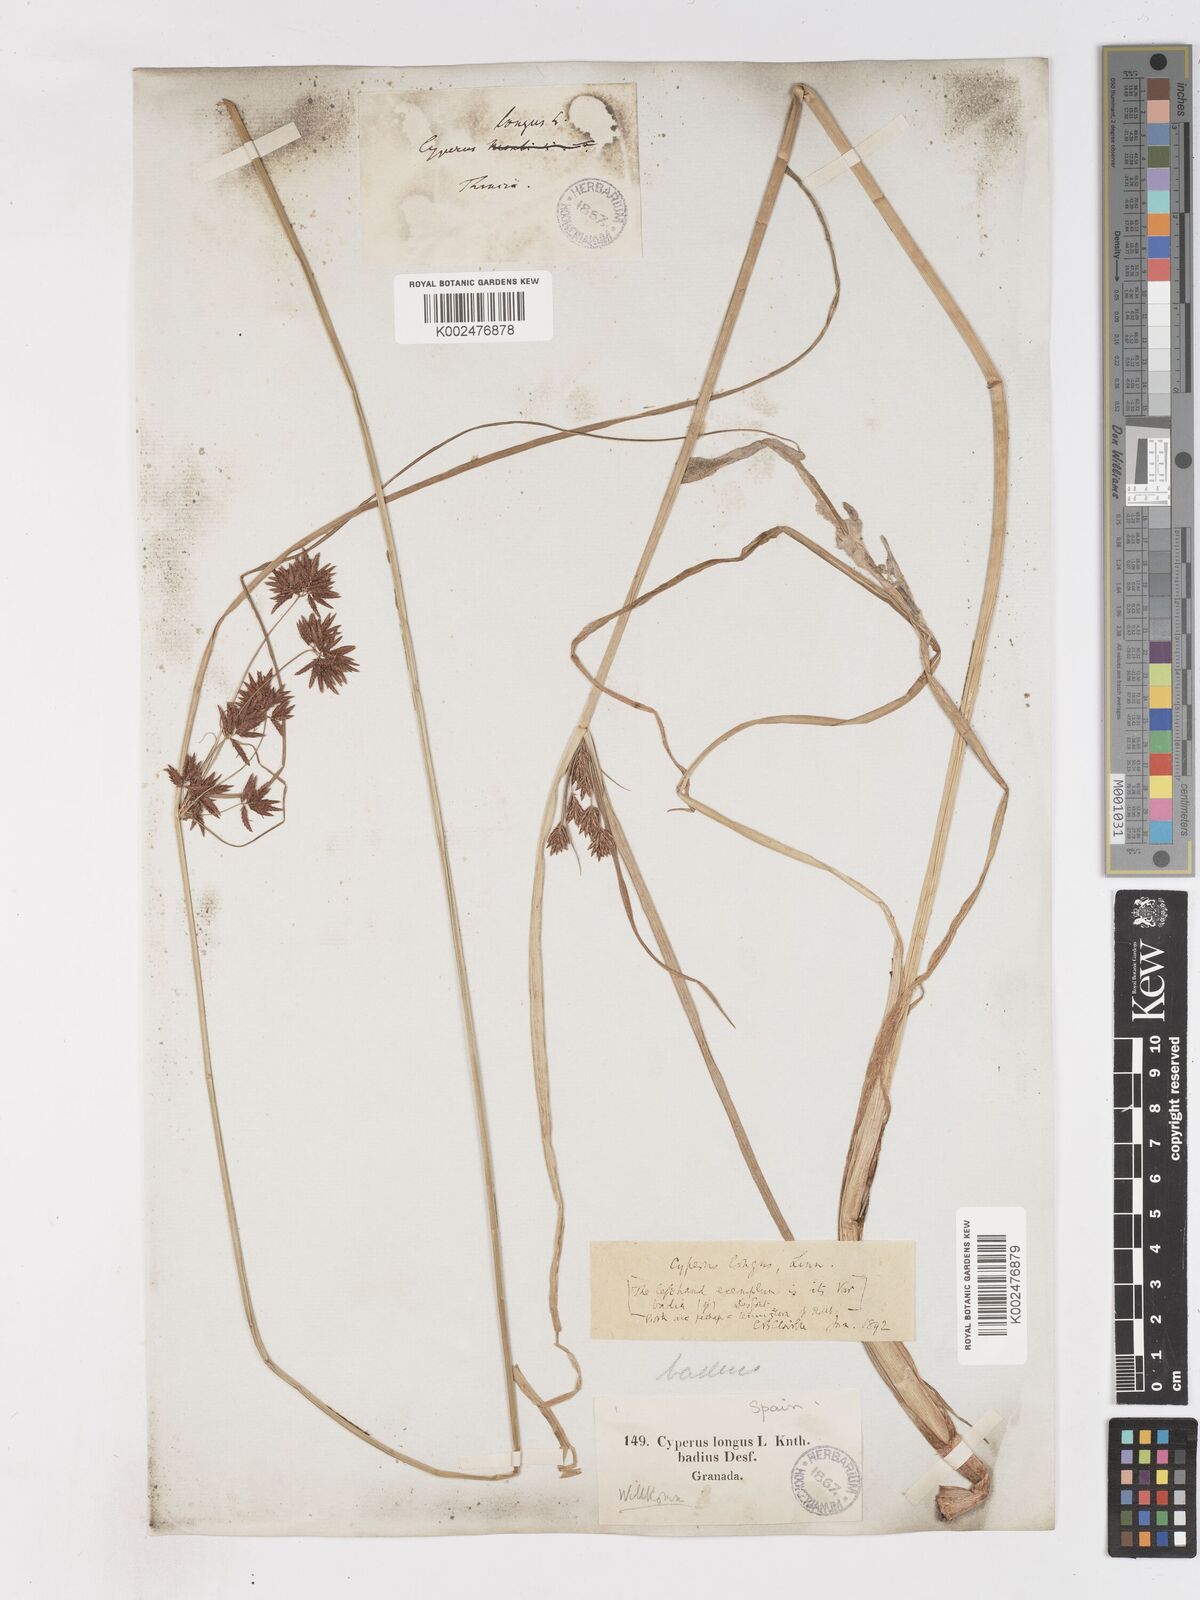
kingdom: Plantae
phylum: Tracheophyta
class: Liliopsida
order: Poales
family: Cyperaceae
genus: Cyperus
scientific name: Cyperus longus
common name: Galingale
